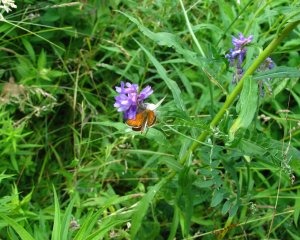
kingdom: Animalia
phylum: Arthropoda
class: Insecta
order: Lepidoptera
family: Hesperiidae
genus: Thymelicus
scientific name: Thymelicus lineola
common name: European Skipper
